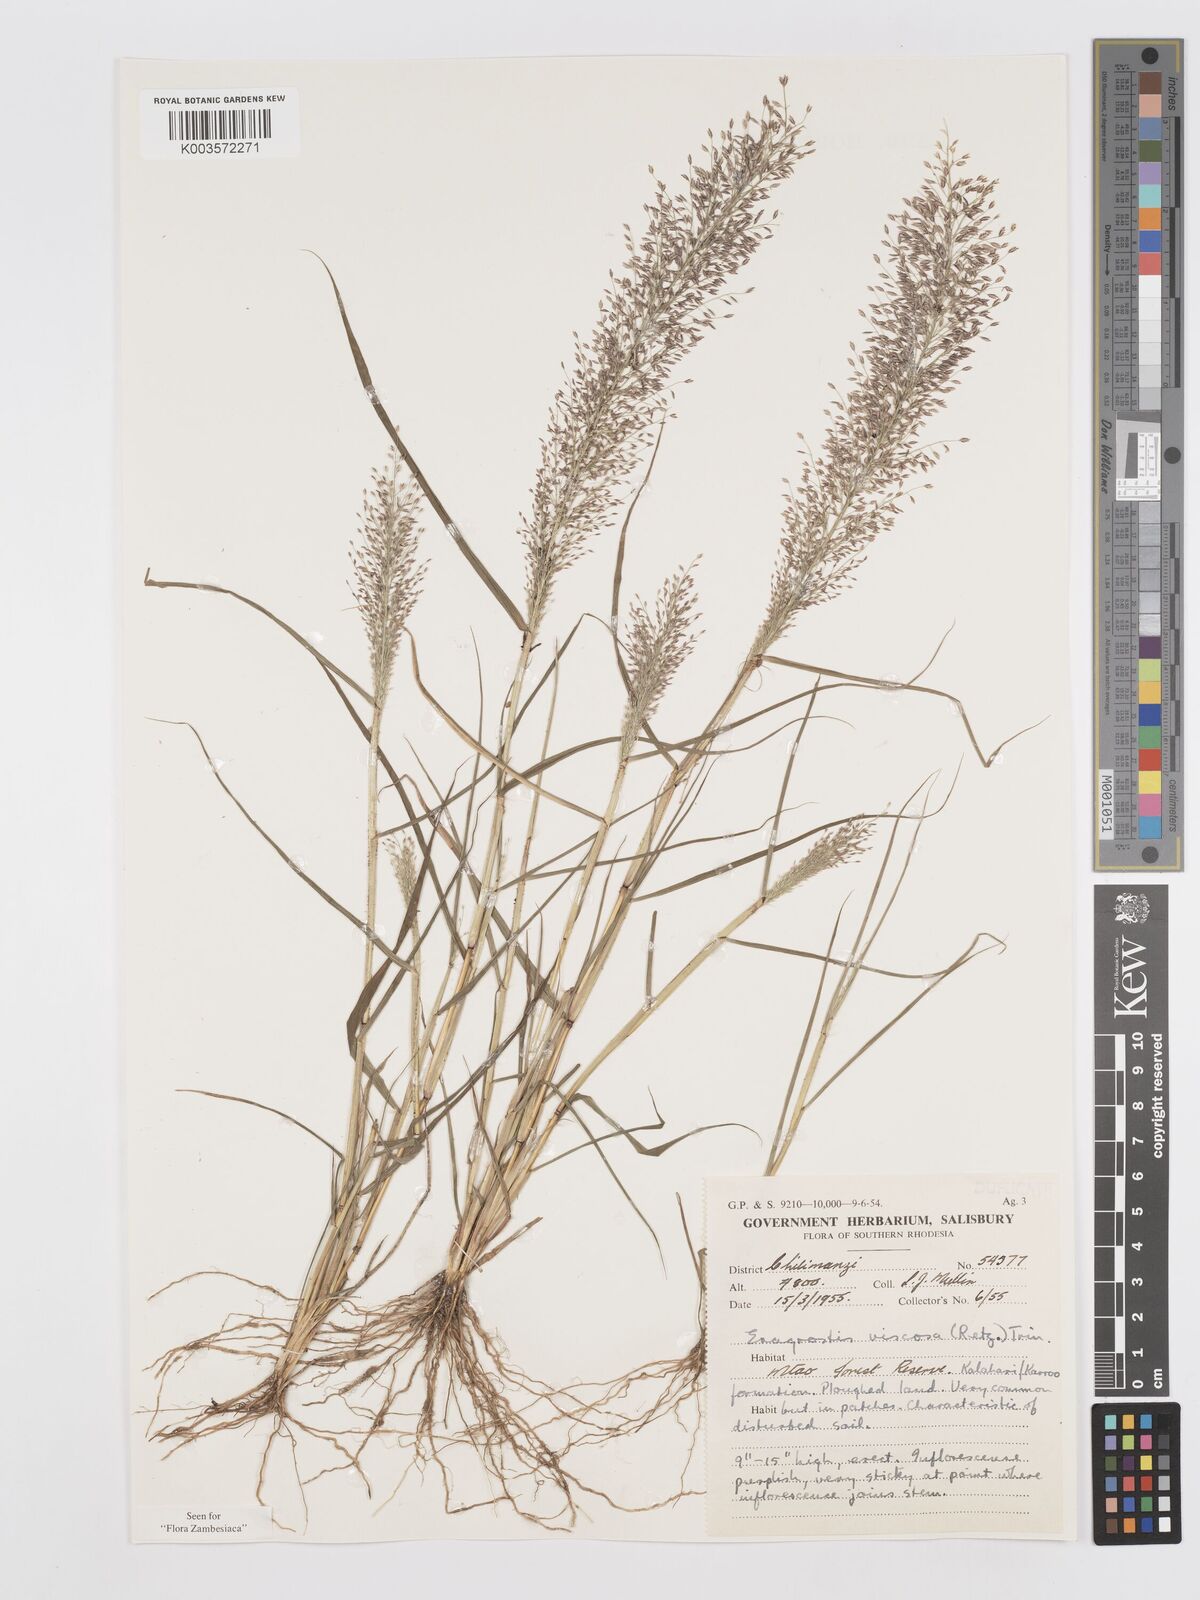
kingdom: Plantae
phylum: Tracheophyta
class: Liliopsida
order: Poales
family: Poaceae
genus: Eragrostis
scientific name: Eragrostis
